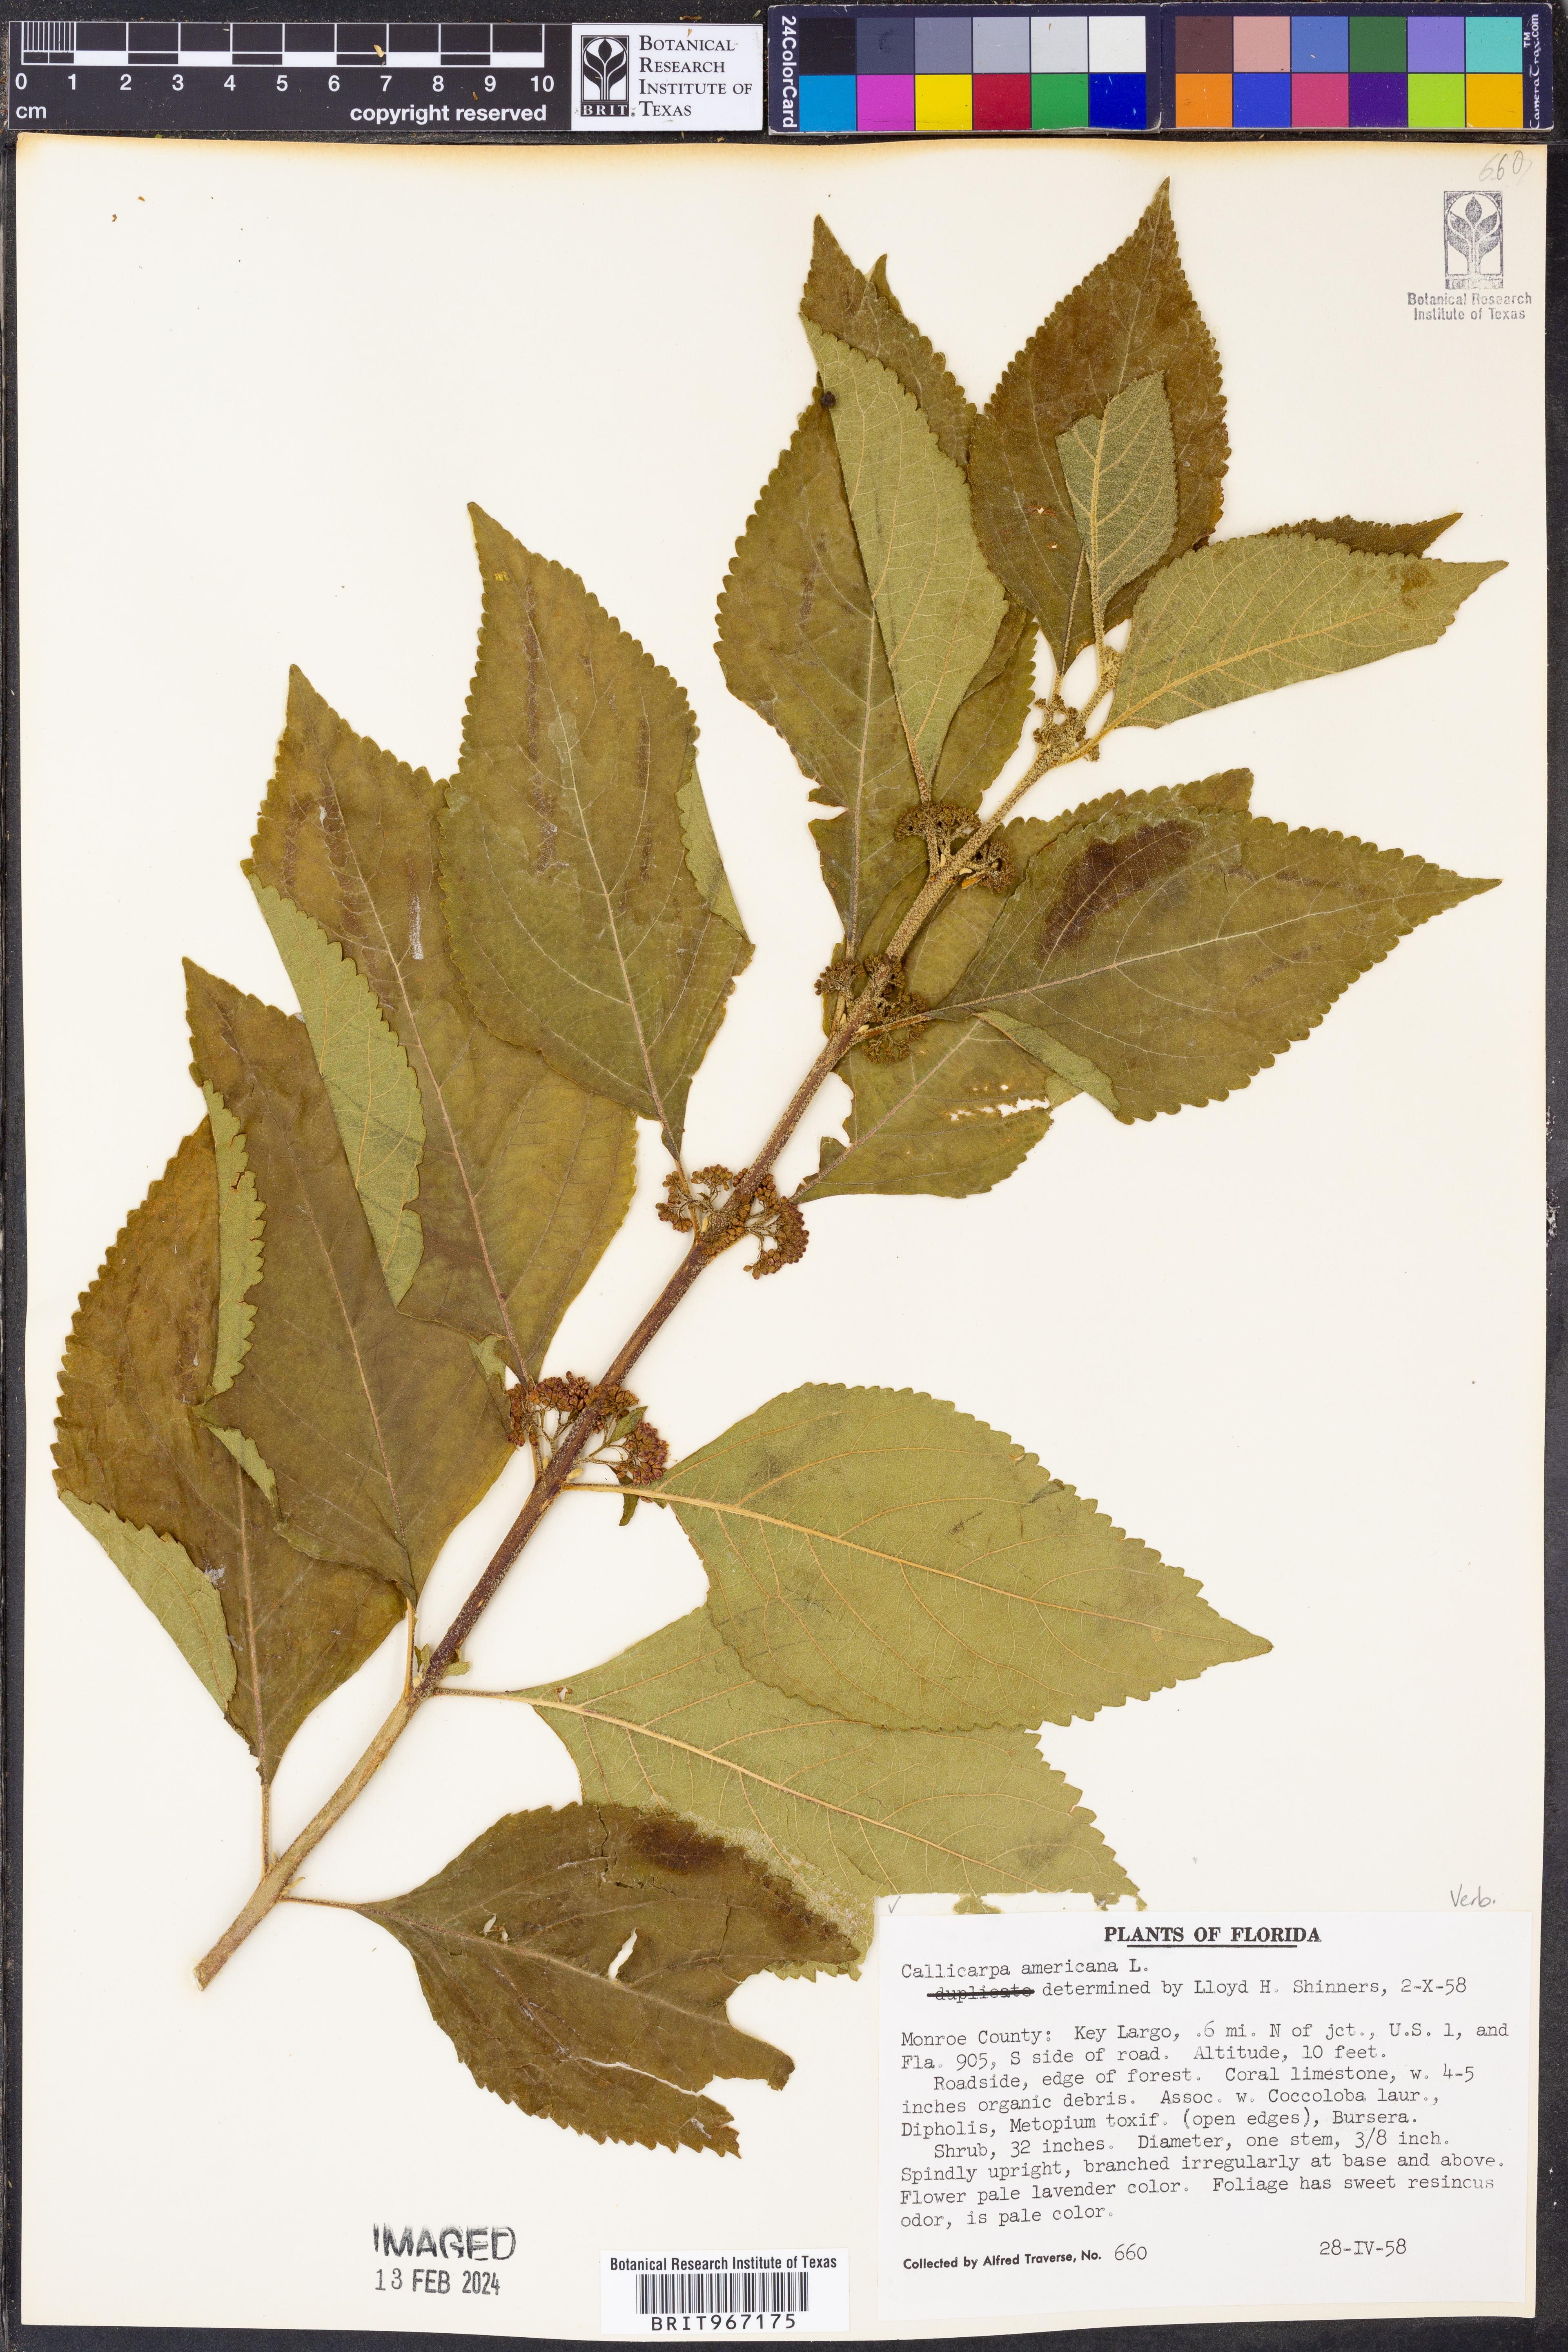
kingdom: Plantae
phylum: Tracheophyta
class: Magnoliopsida
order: Lamiales
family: Lamiaceae
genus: Callicarpa
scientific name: Callicarpa americana
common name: American beautyberry
